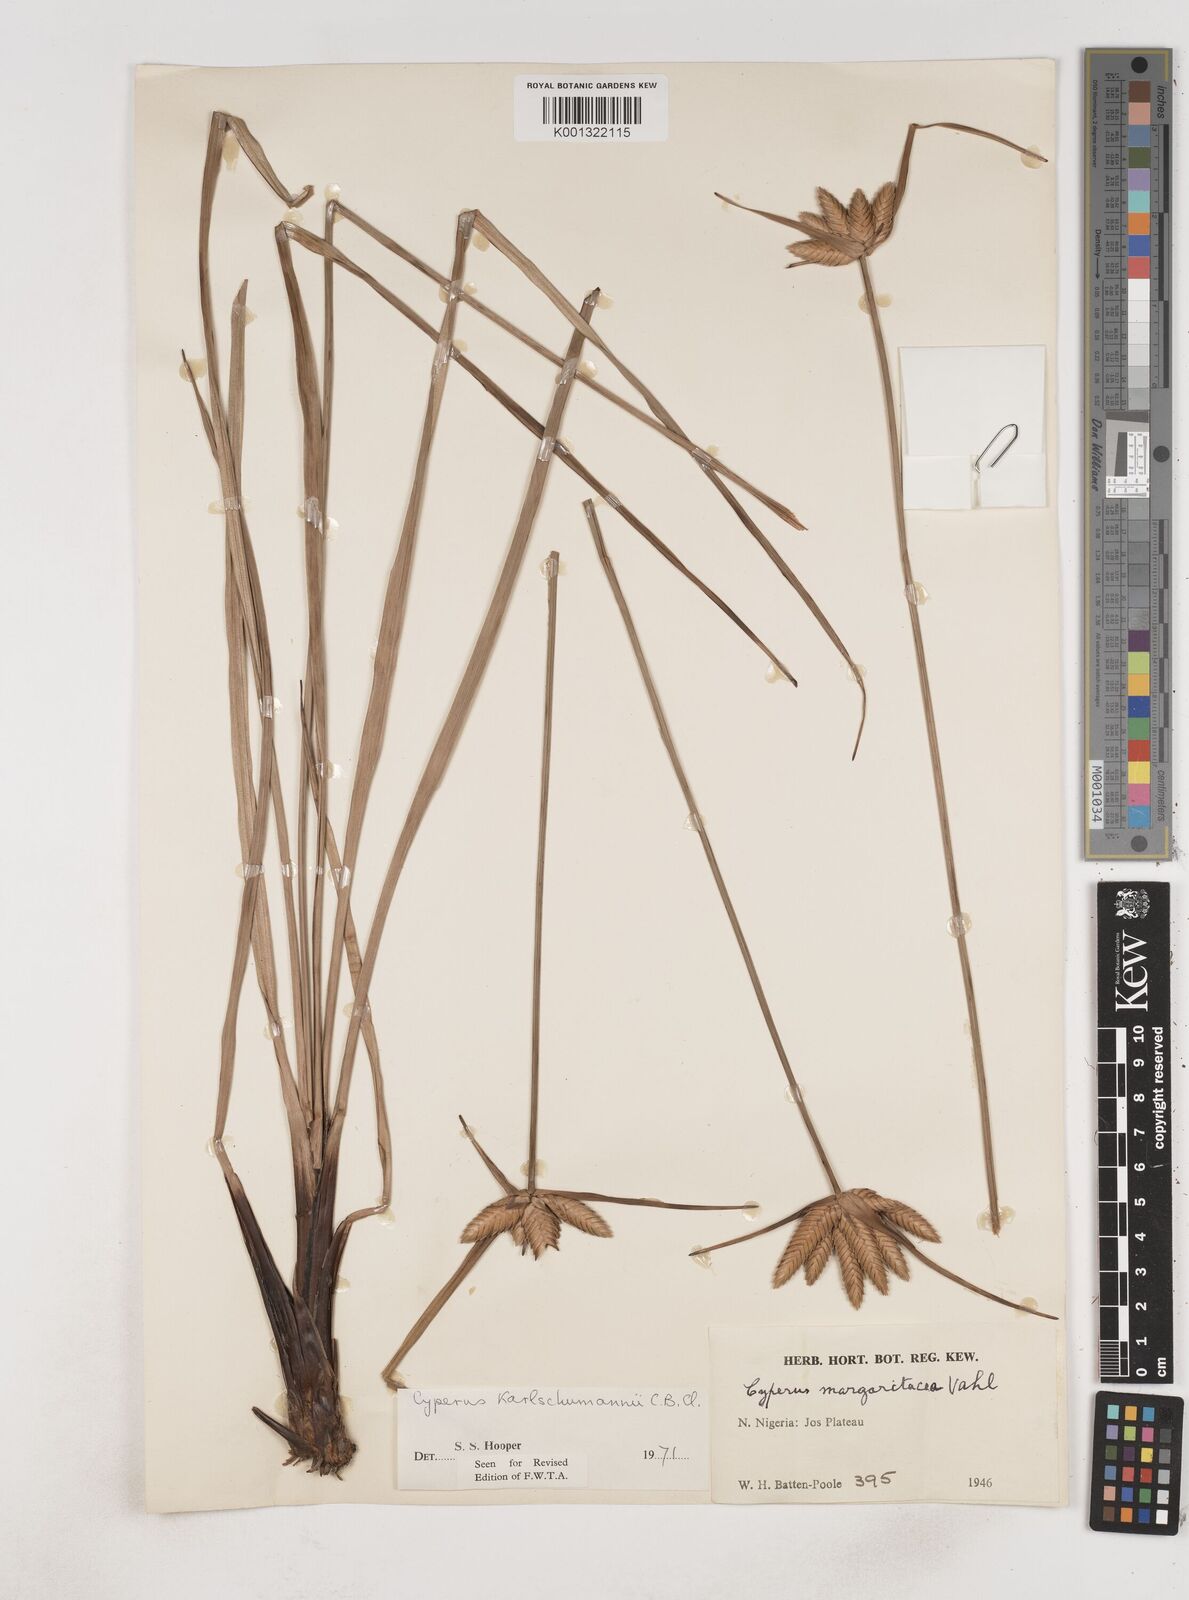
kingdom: Plantae
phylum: Tracheophyta
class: Liliopsida
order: Poales
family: Cyperaceae
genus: Cyperus
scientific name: Cyperus karlschumannii
